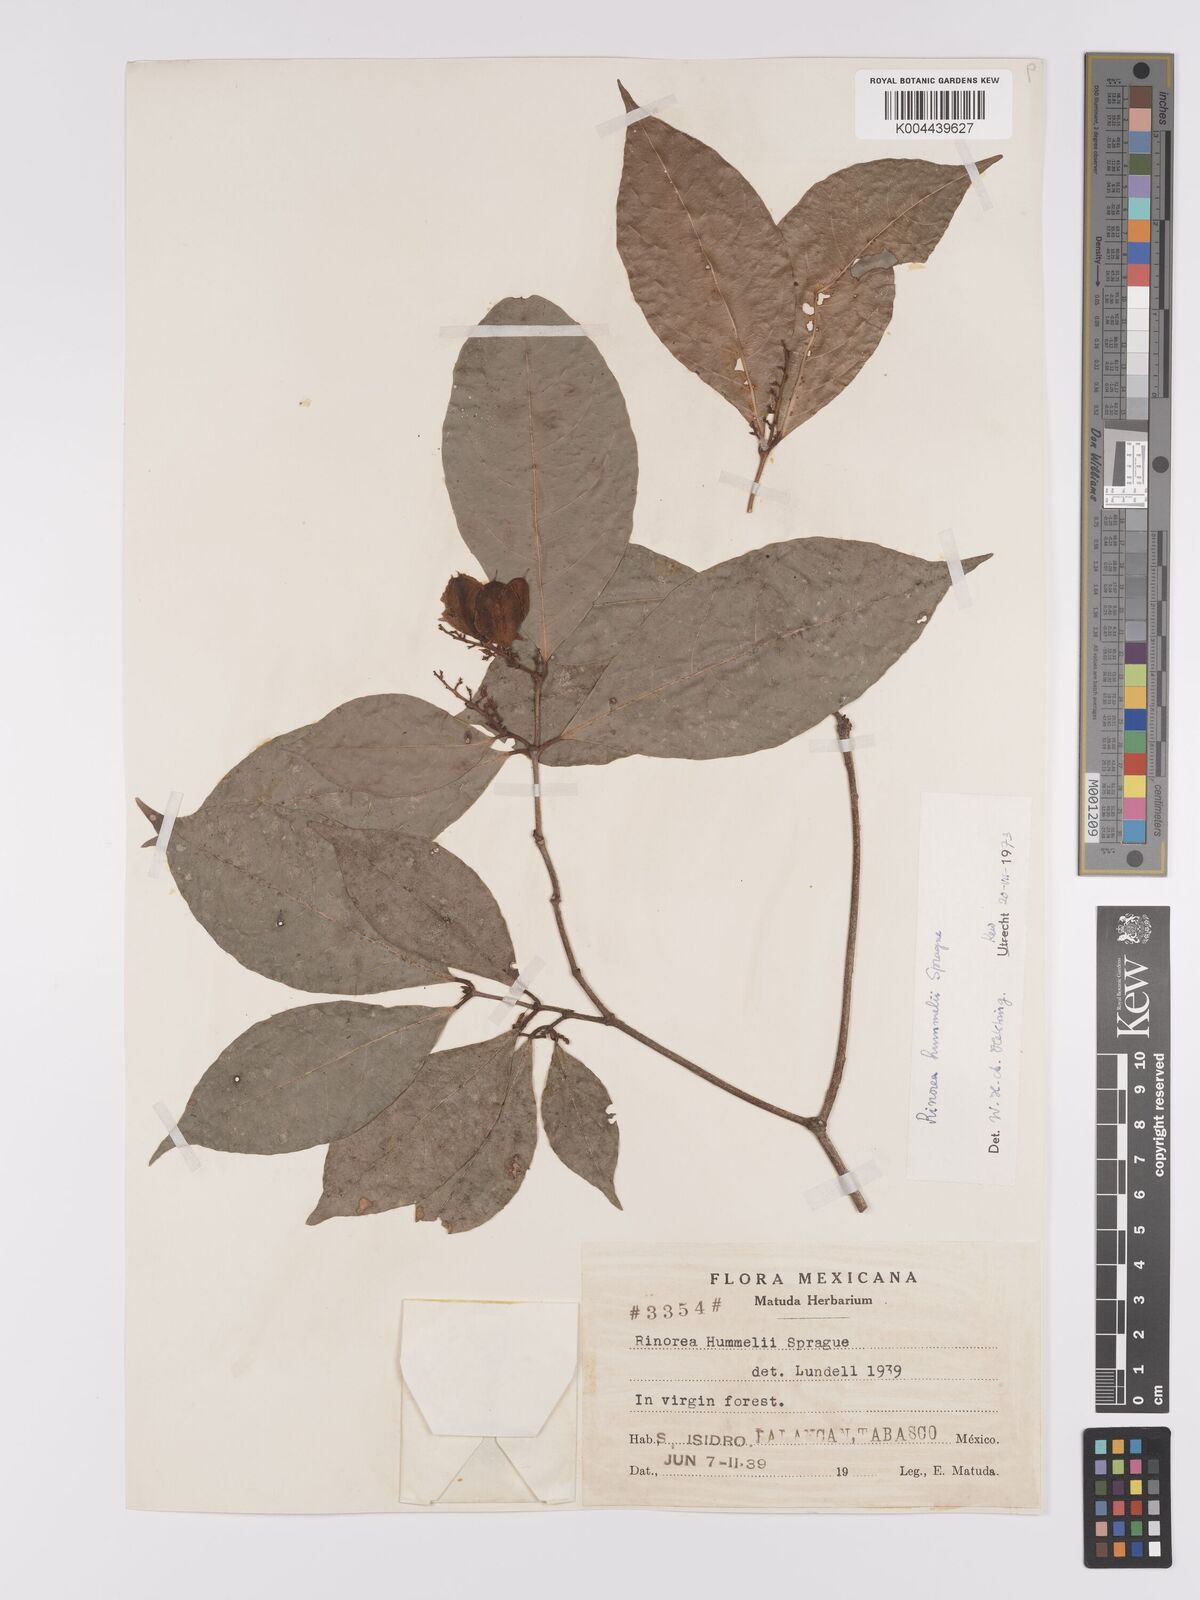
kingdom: Plantae
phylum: Tracheophyta
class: Magnoliopsida
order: Malpighiales
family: Violaceae
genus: Rinorea
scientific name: Rinorea hummelii
